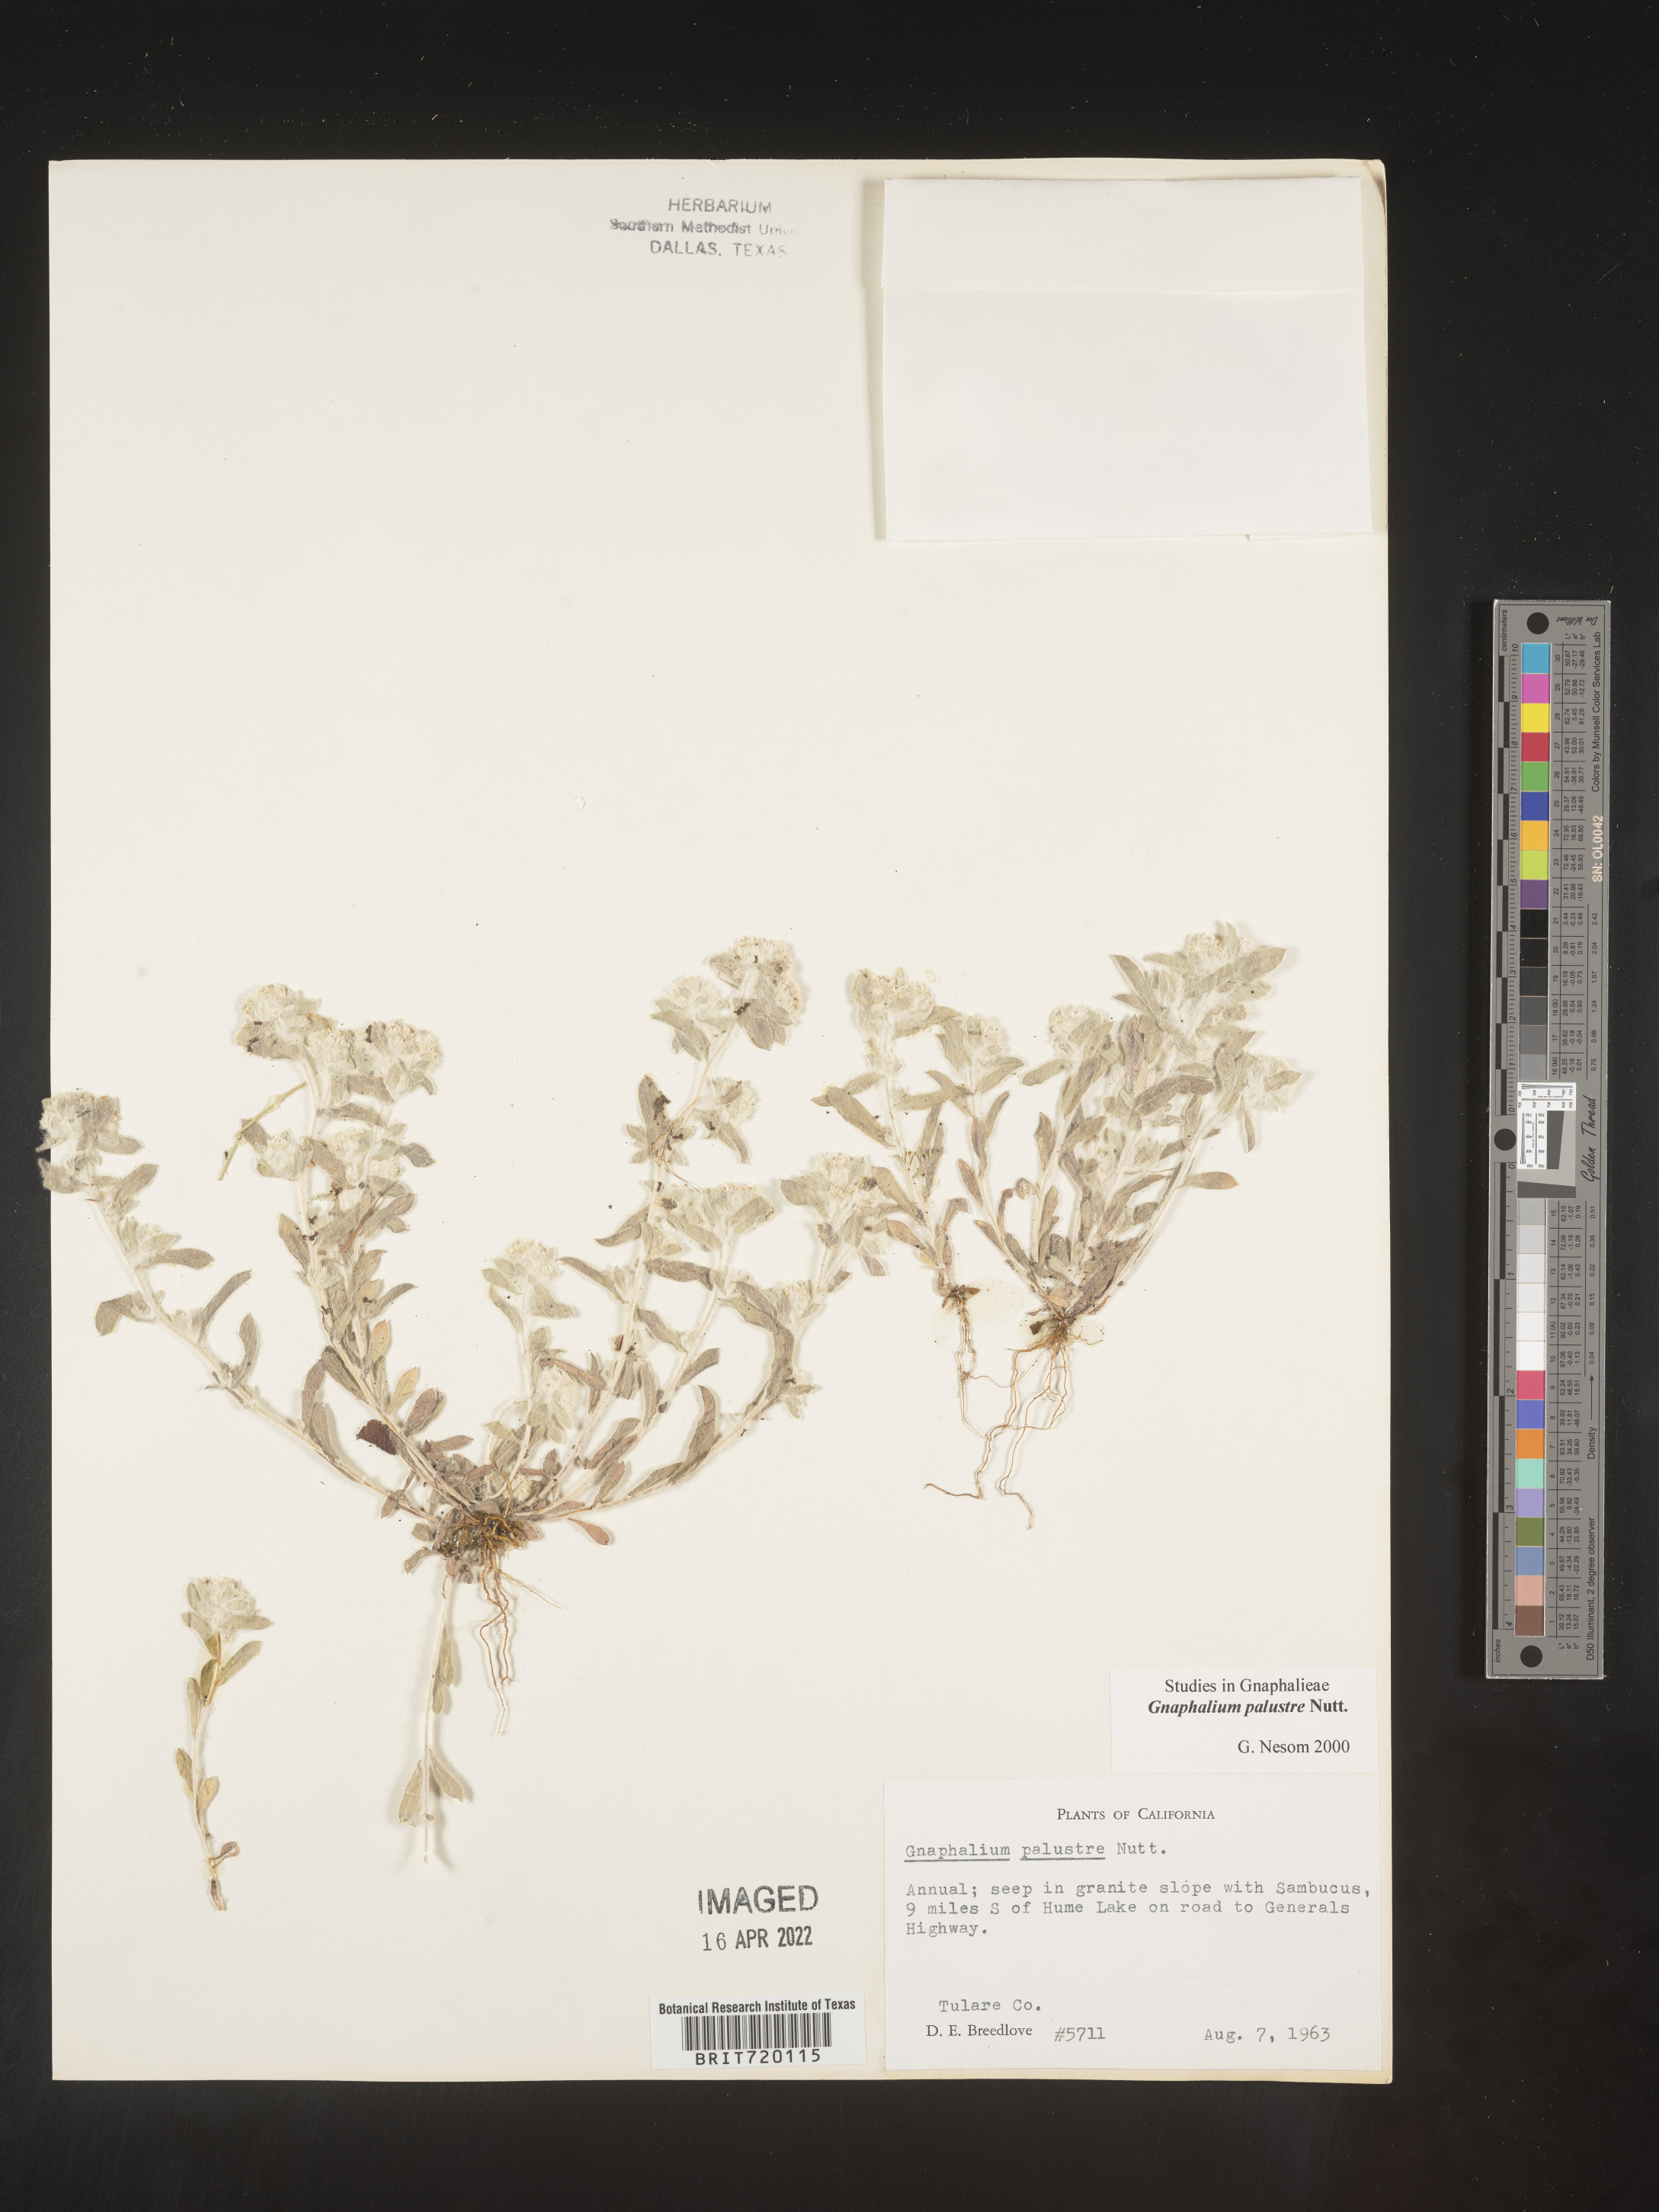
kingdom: Plantae
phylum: Tracheophyta
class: Magnoliopsida
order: Asterales
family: Asteraceae
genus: Gnaphalium
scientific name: Gnaphalium palustre
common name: Western marsh cudweed
